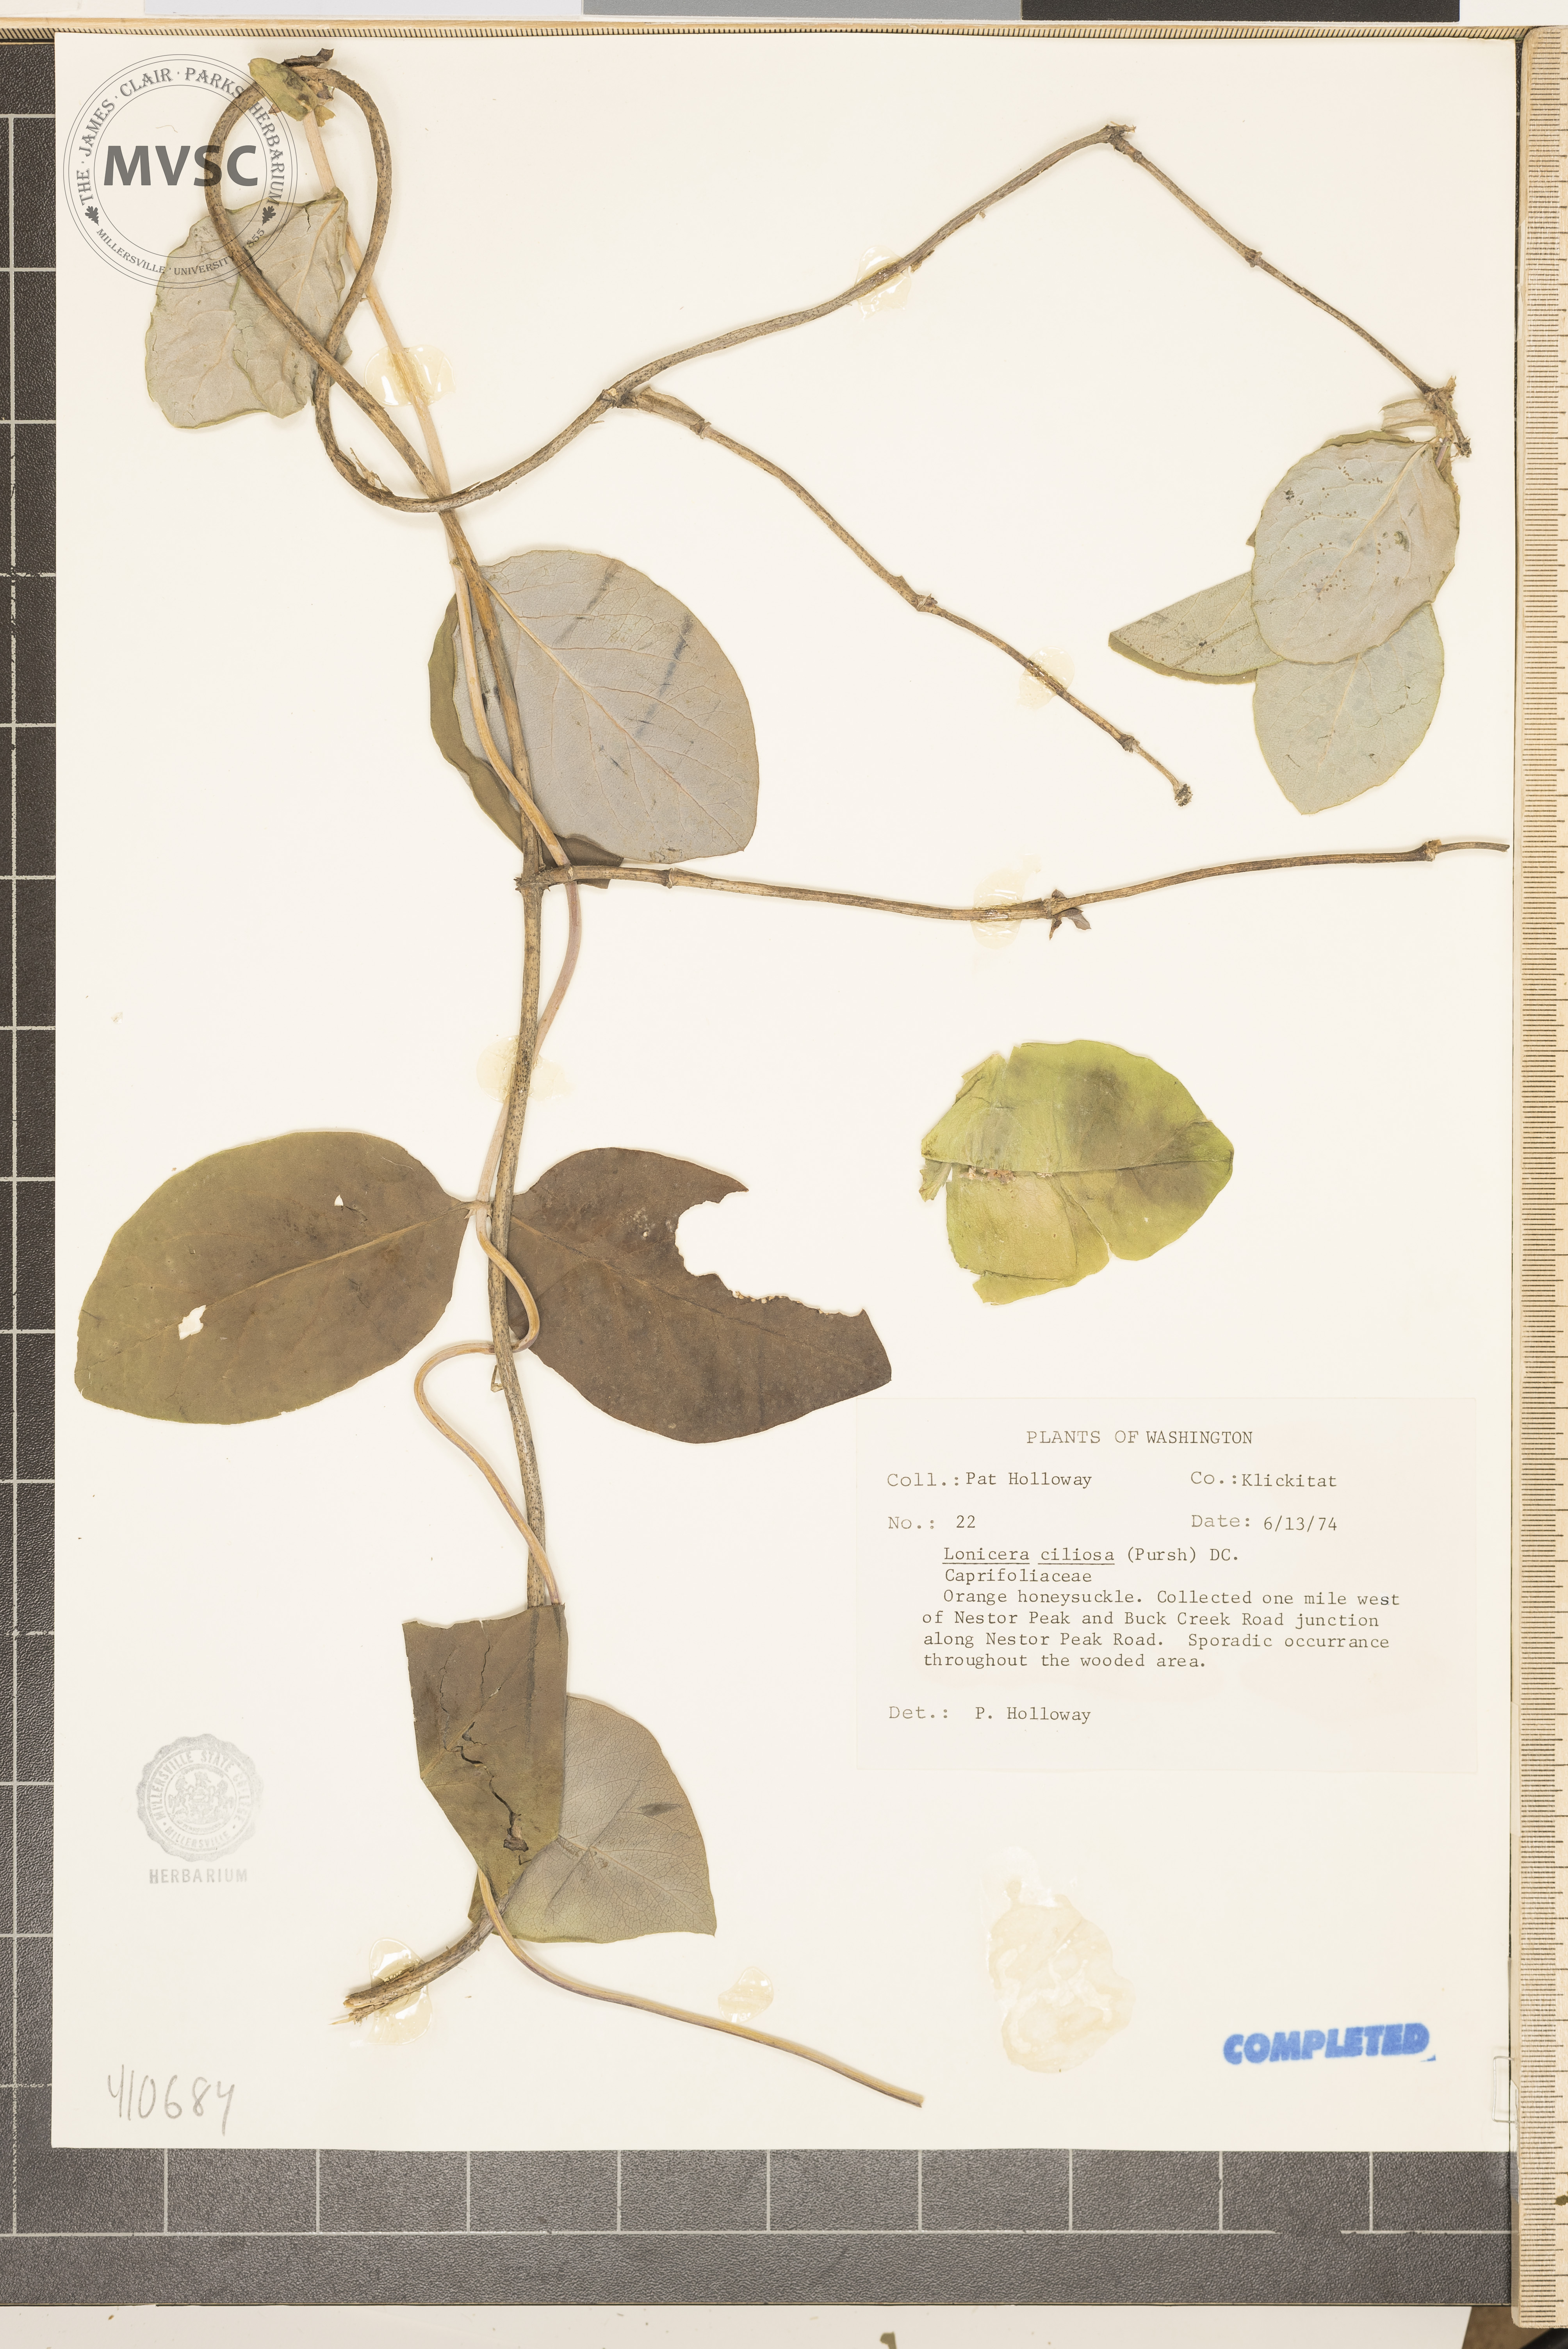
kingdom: Plantae
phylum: Tracheophyta
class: Magnoliopsida
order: Dipsacales
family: Caprifoliaceae
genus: Lonicera
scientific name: Lonicera ciliosa
